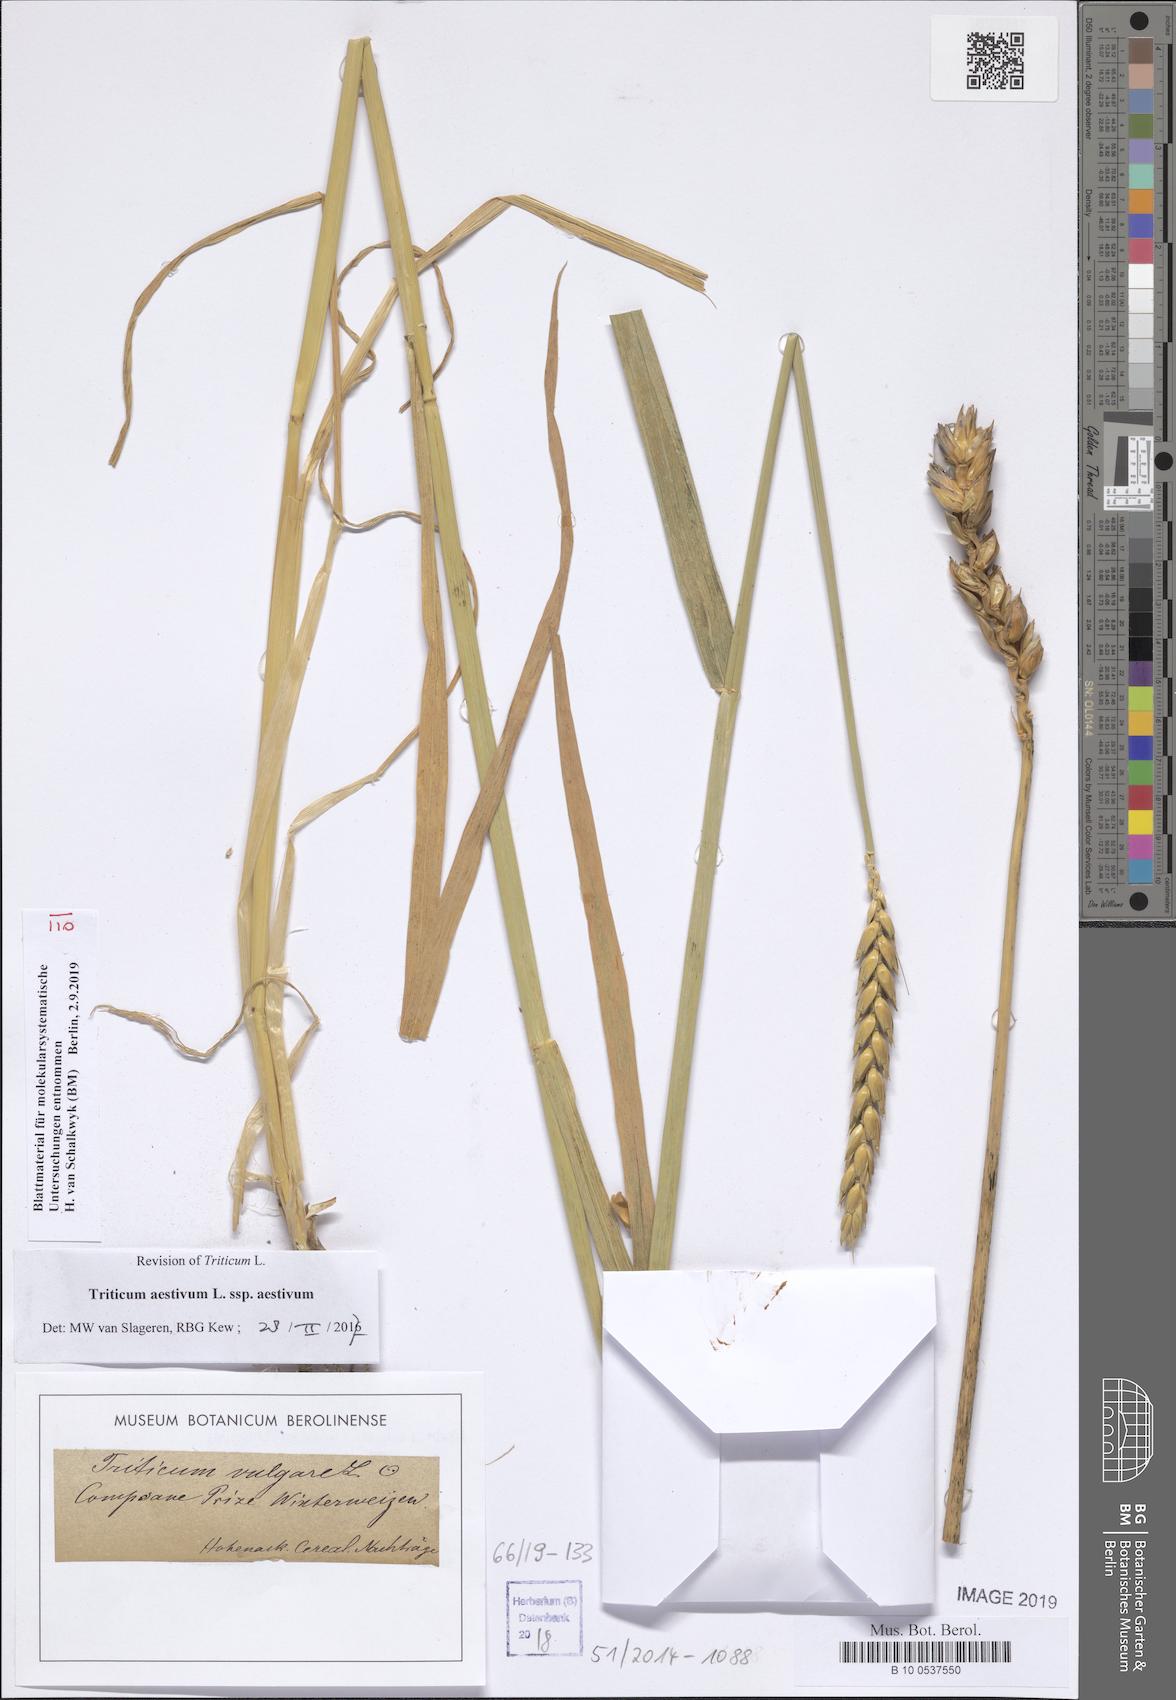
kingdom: Plantae
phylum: Tracheophyta
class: Liliopsida
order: Poales
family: Poaceae
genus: Triticum
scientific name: Triticum aestivum
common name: Common wheat
